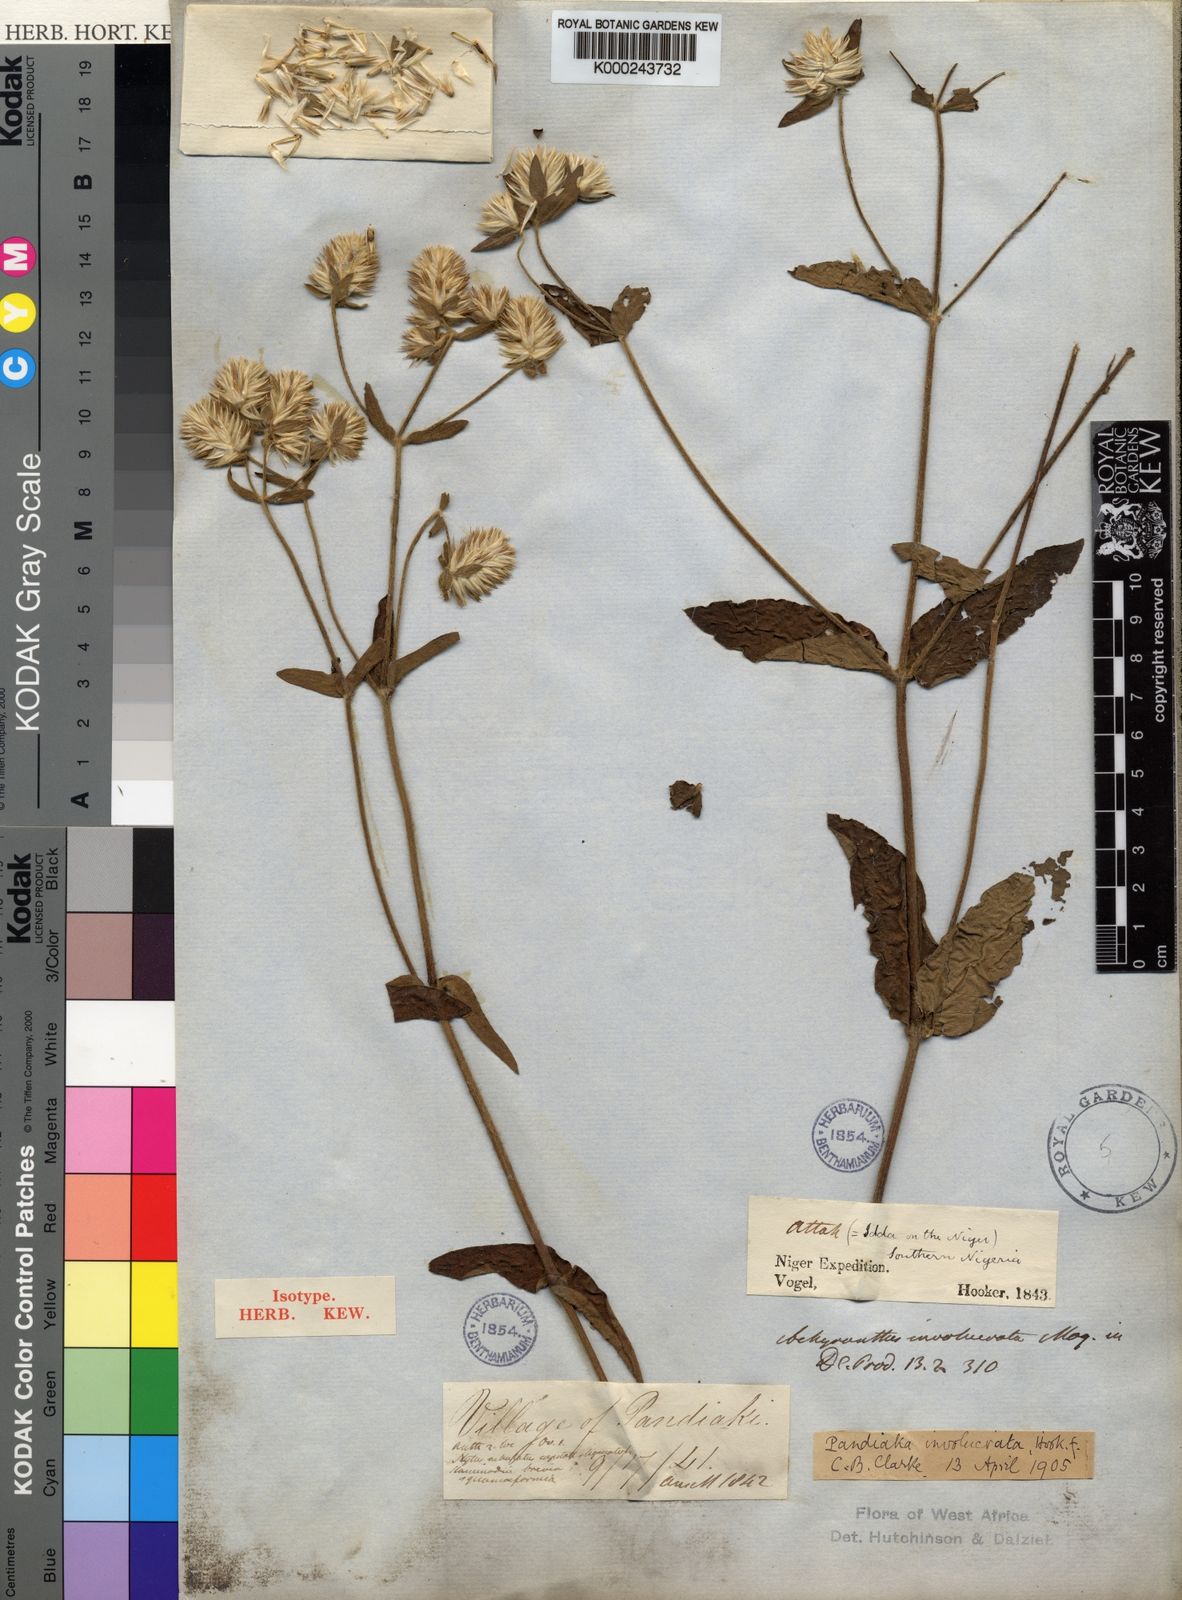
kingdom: Plantae
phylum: Tracheophyta
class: Magnoliopsida
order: Caryophyllales
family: Amaranthaceae
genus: Pandiaka
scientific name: Pandiaka
